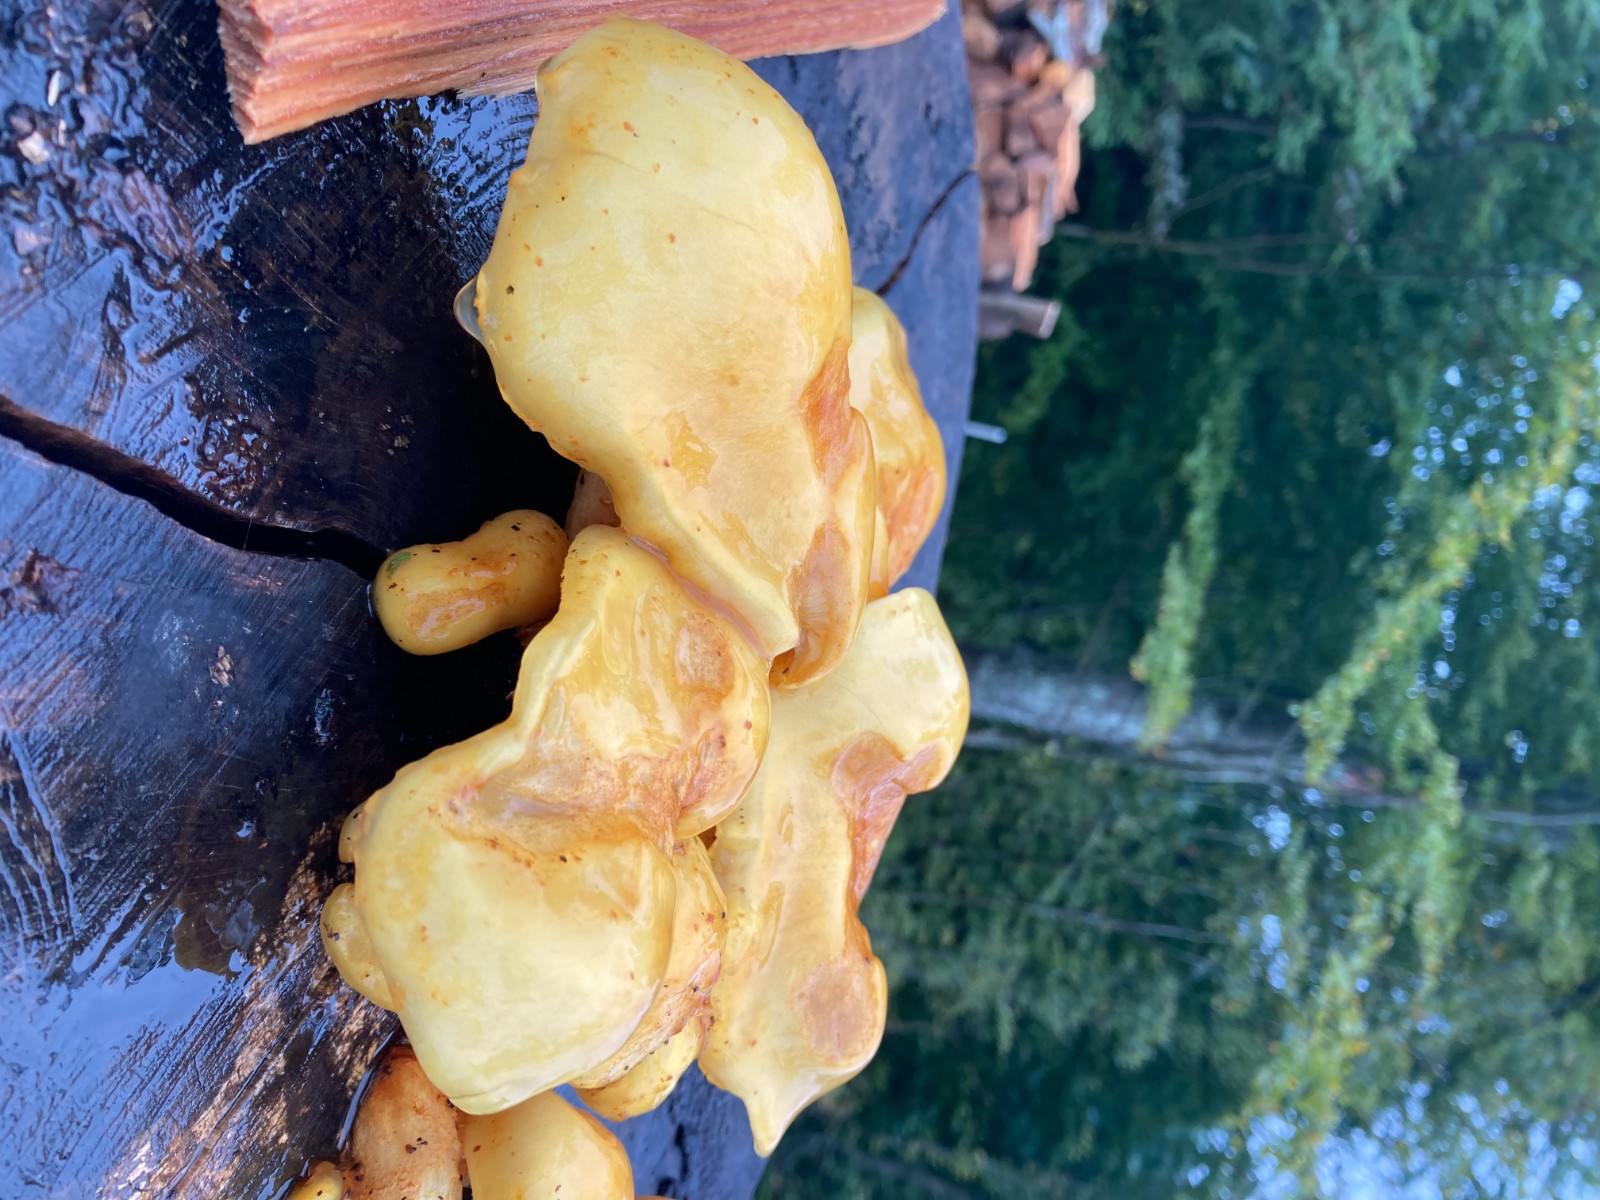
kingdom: Fungi
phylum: Basidiomycota
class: Agaricomycetes
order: Agaricales
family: Strophariaceae
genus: Pholiota
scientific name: Pholiota adiposa
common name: højtsiddende skælhat
